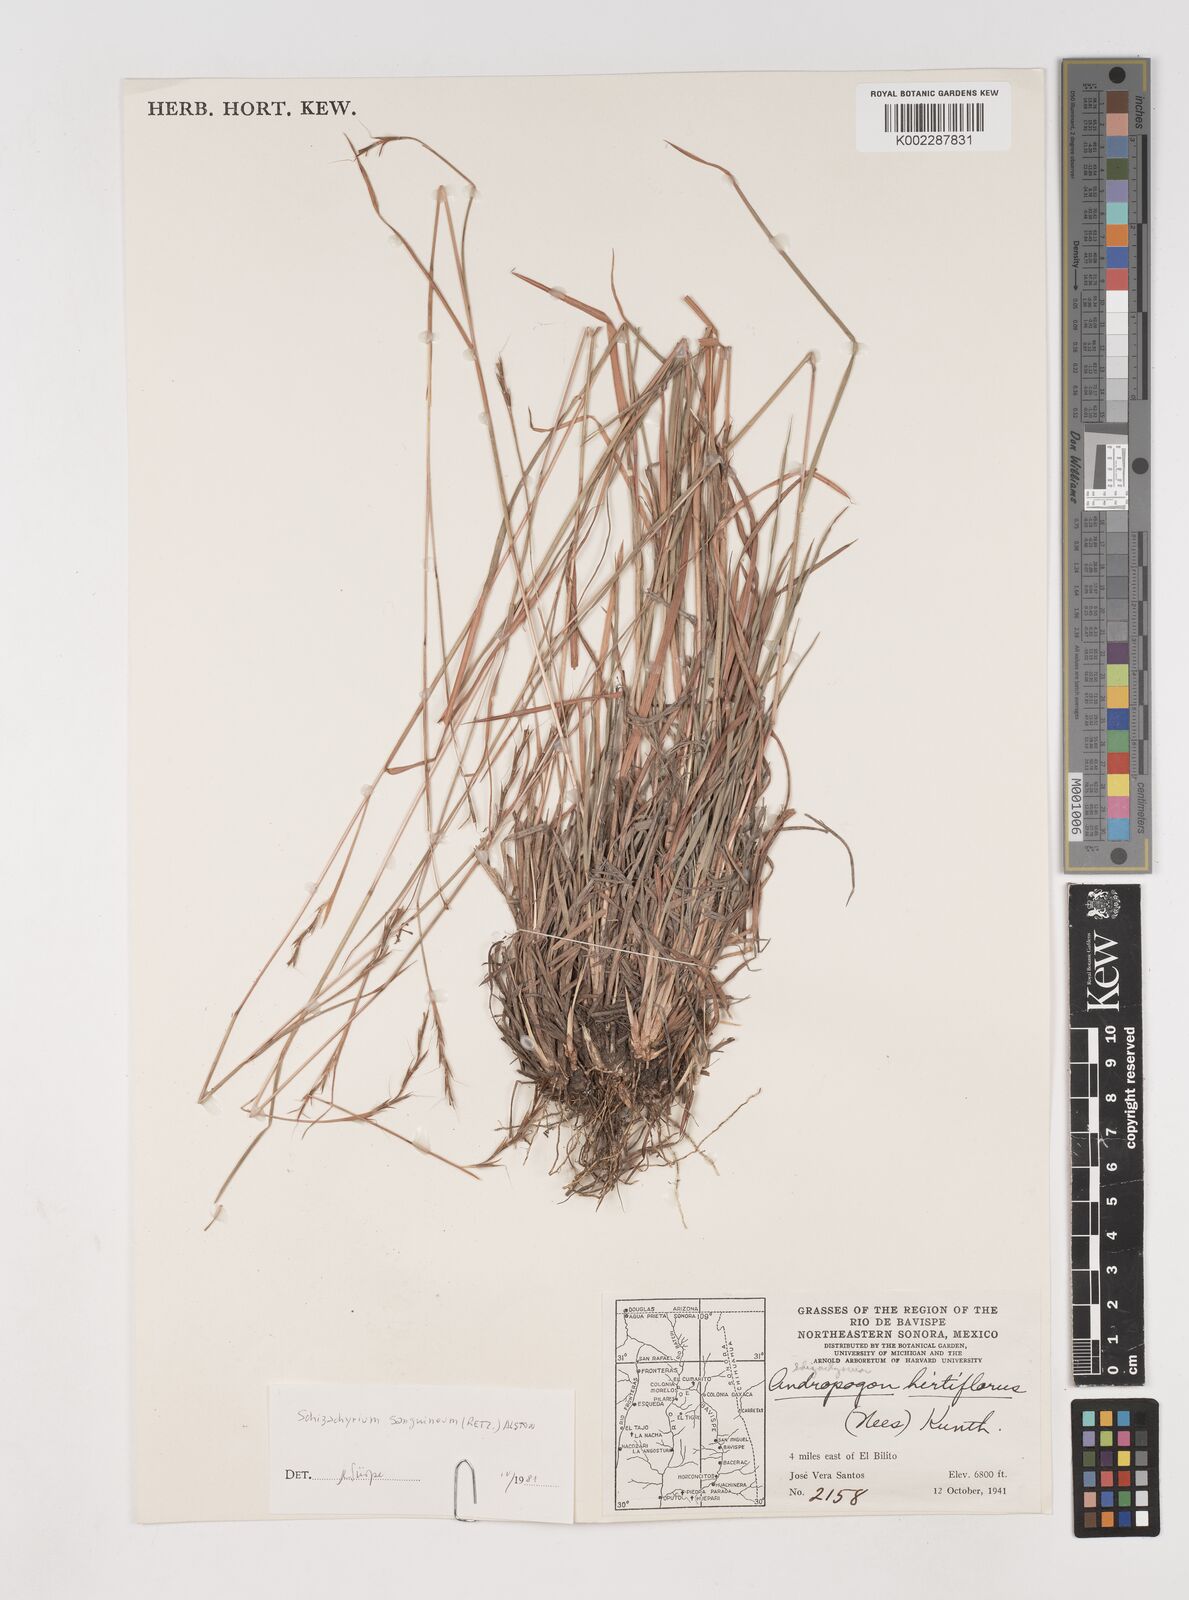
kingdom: Plantae
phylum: Tracheophyta
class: Liliopsida
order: Poales
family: Poaceae
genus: Schizachyrium
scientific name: Schizachyrium sanguineum
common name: Crimson bluestem
